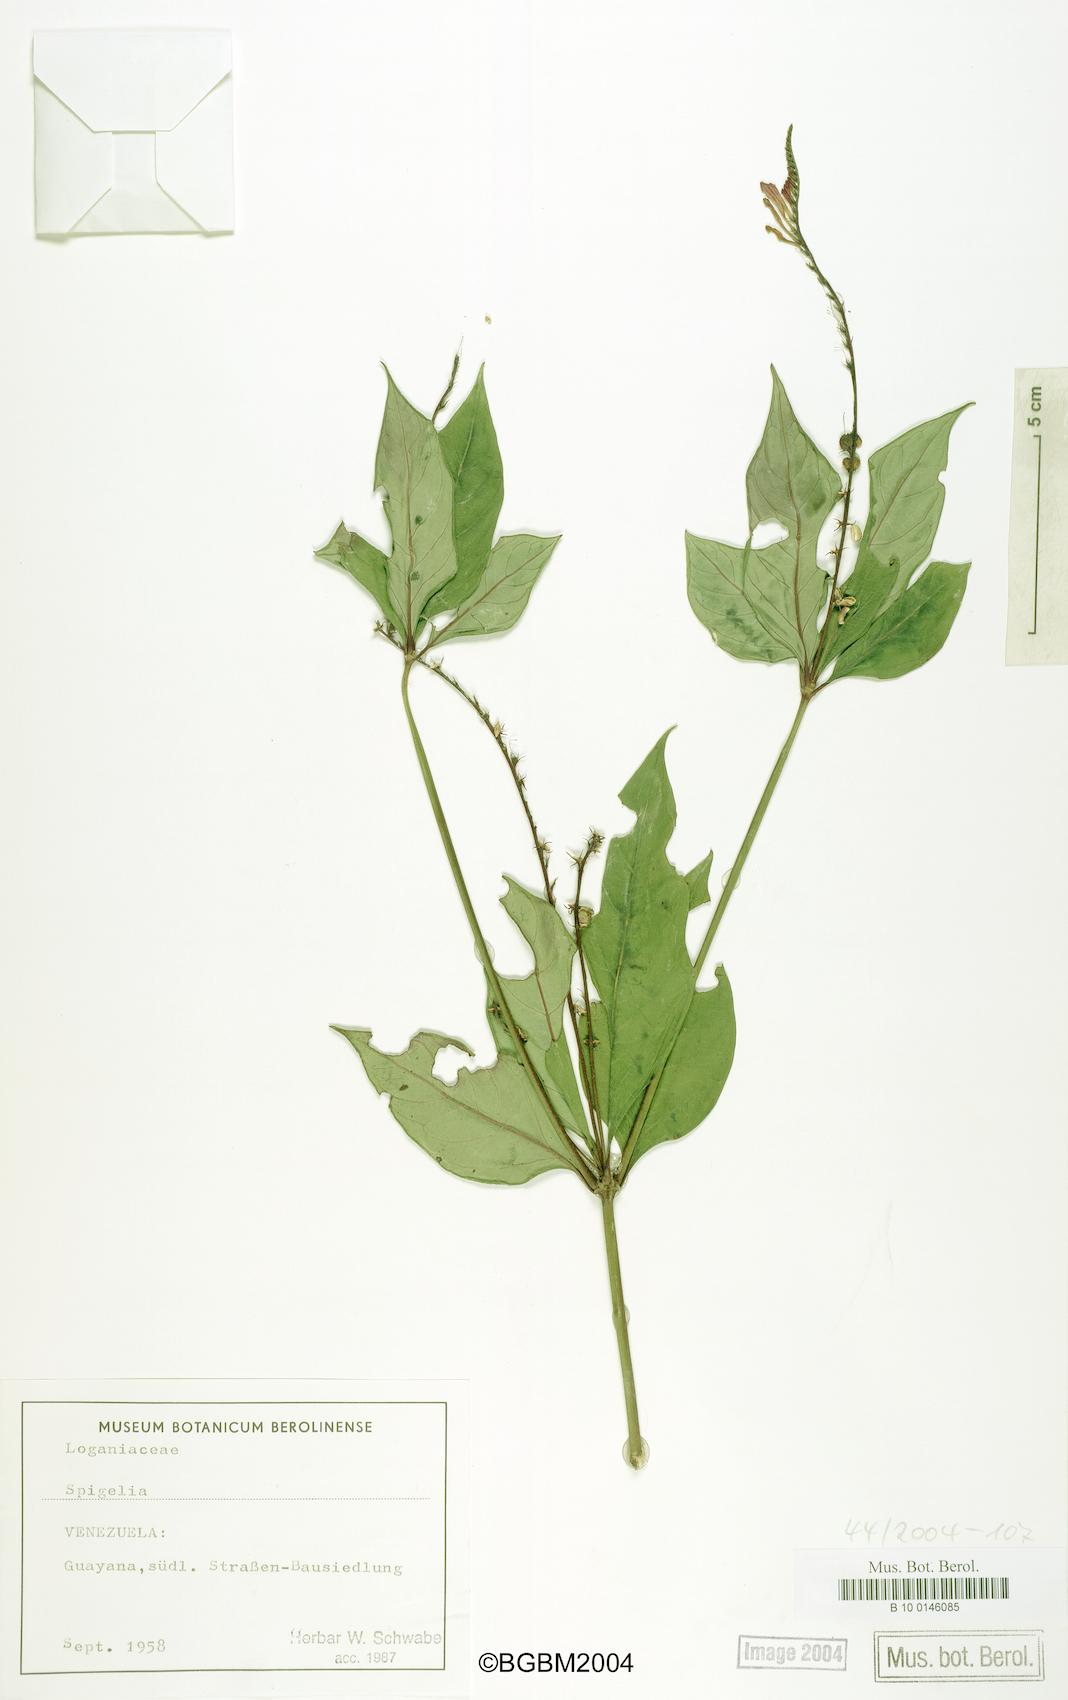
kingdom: Plantae
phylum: Tracheophyta
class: Magnoliopsida
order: Gentianales
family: Loganiaceae
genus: Spigelia
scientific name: Spigelia
